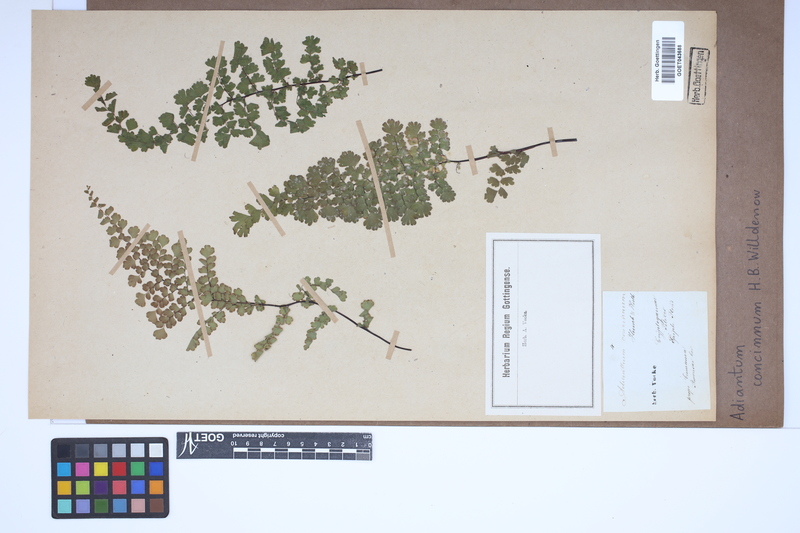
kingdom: Plantae
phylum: Tracheophyta
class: Polypodiopsida
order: Polypodiales
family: Pteridaceae
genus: Adiantum
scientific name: Adiantum concinnum
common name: Brittle maidenhair fern
